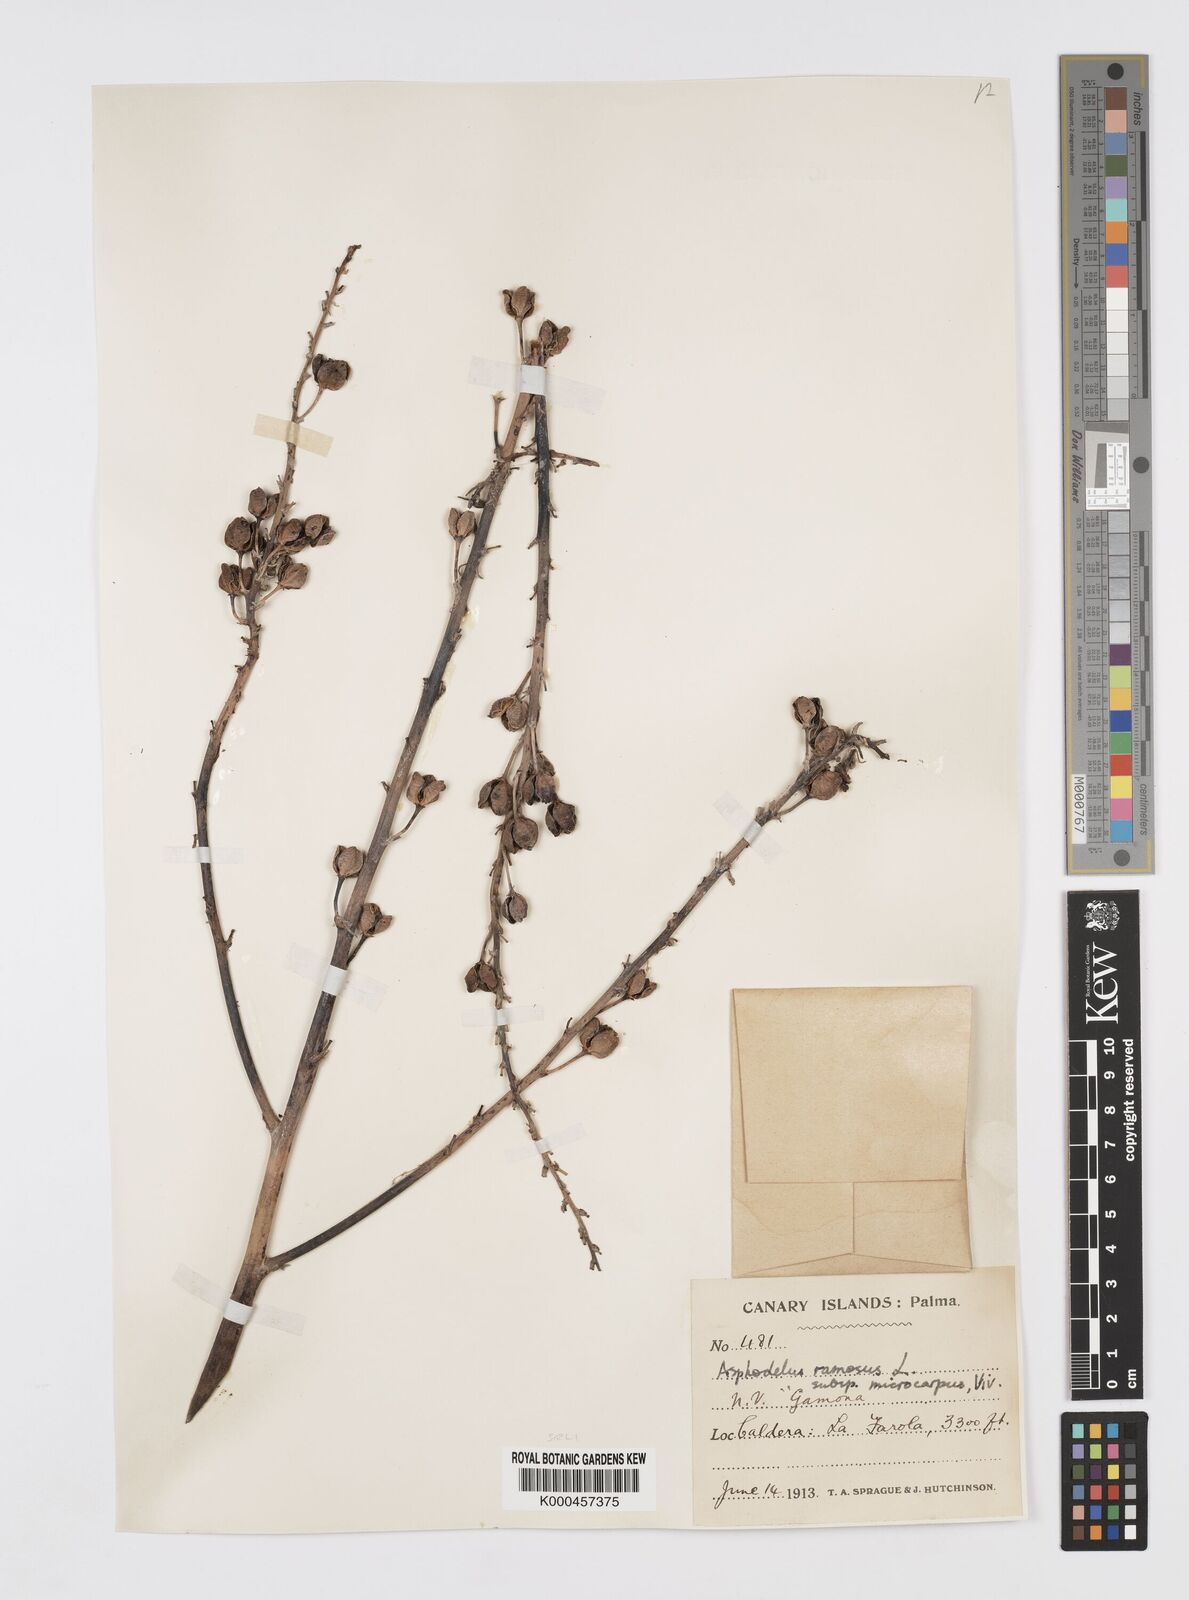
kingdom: Plantae
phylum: Tracheophyta
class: Liliopsida
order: Asparagales
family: Asphodelaceae
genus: Asphodelus
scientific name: Asphodelus aestivus
